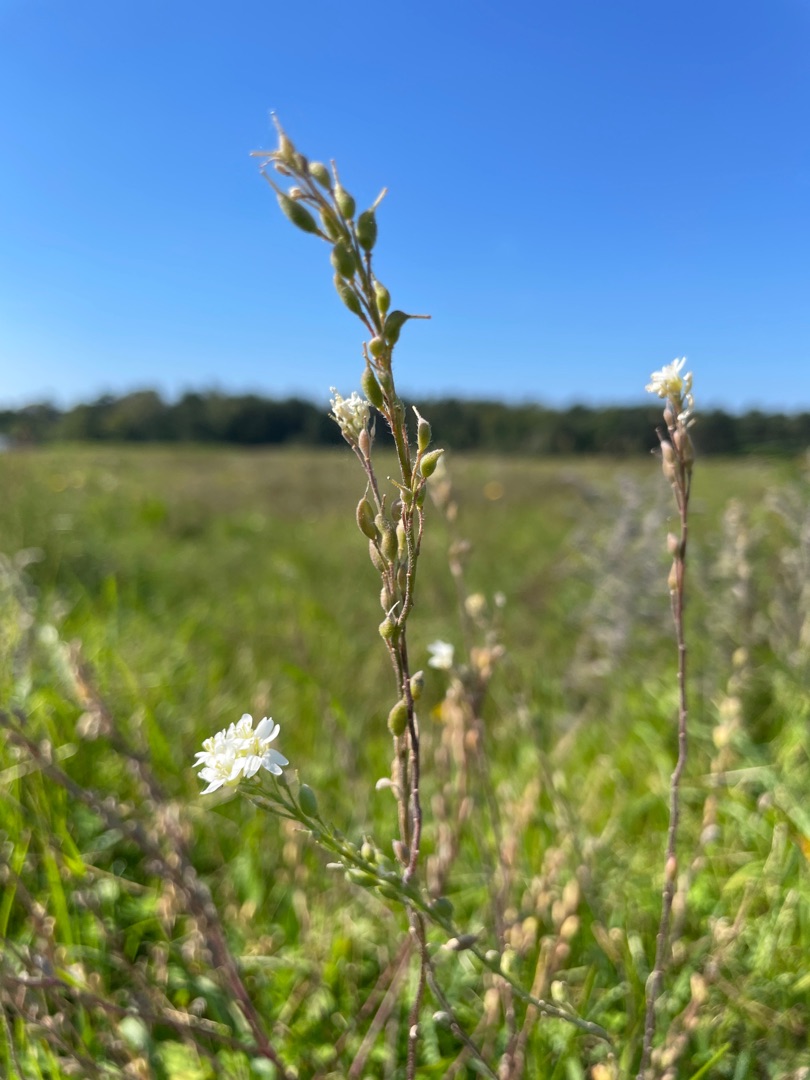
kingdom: Plantae
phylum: Tracheophyta
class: Magnoliopsida
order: Brassicales
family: Brassicaceae
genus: Berteroa
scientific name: Berteroa incana
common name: Kløvplade
